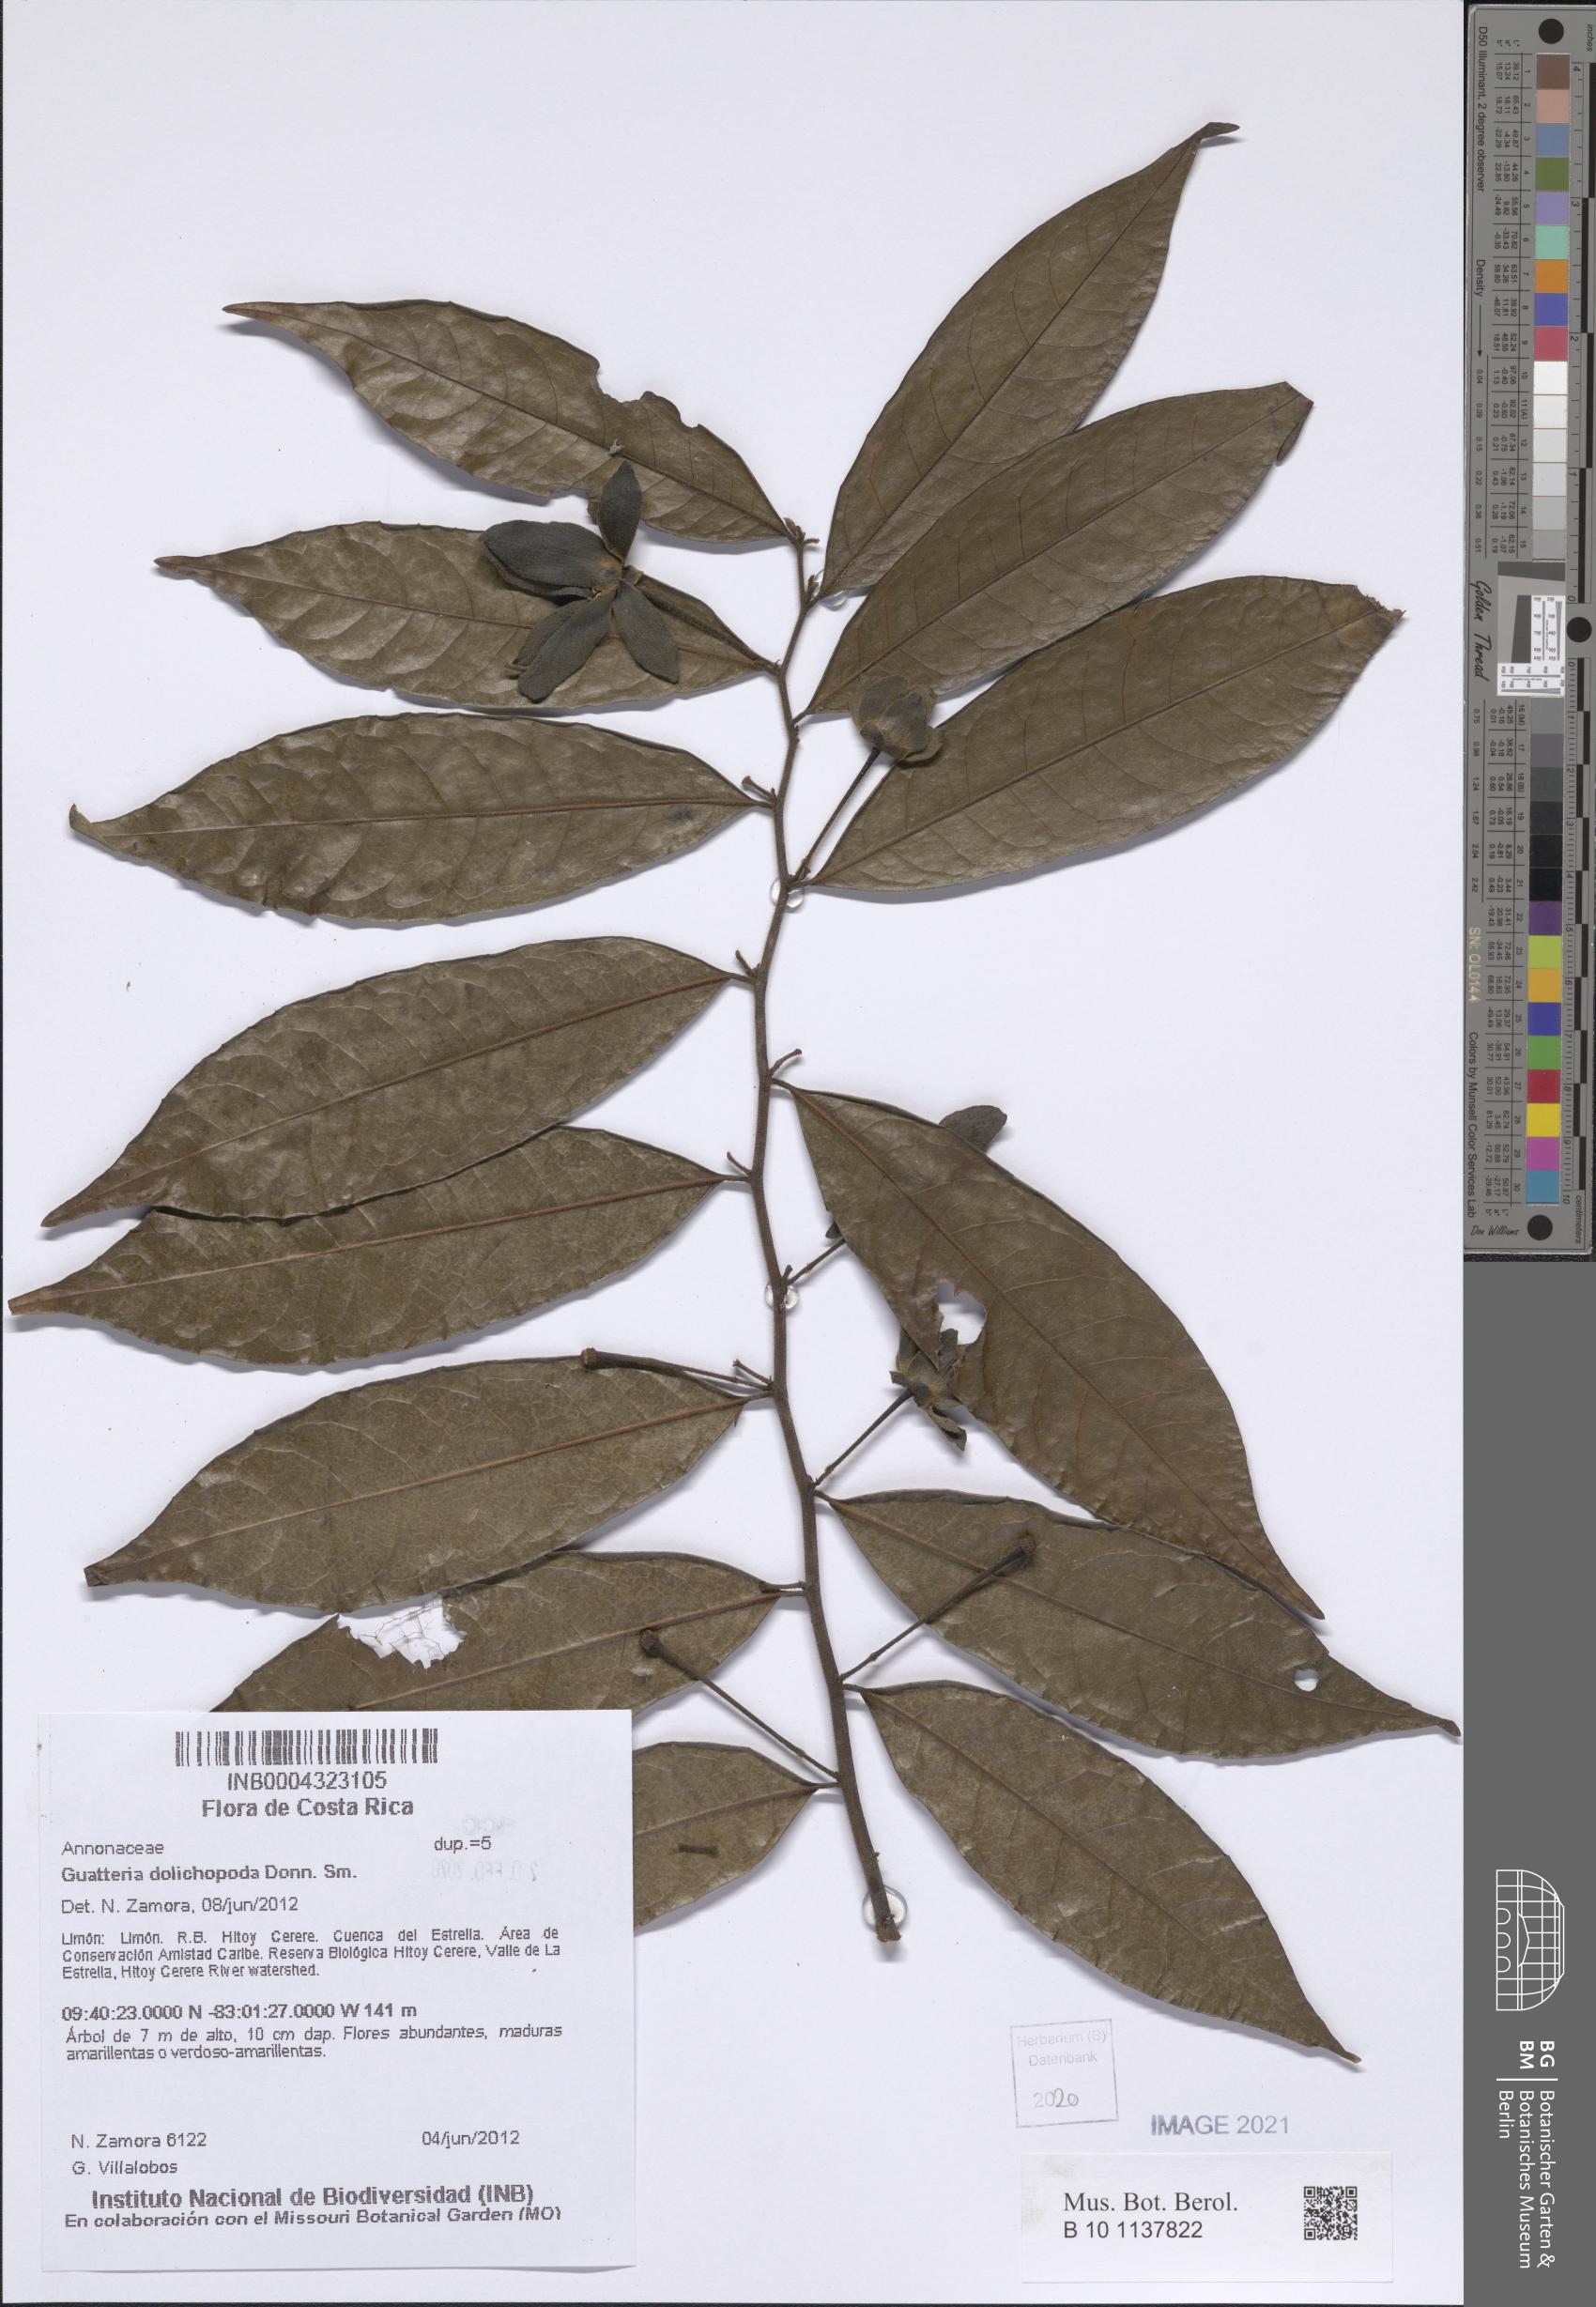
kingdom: Plantae
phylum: Tracheophyta
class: Magnoliopsida
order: Magnoliales
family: Annonaceae
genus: Guatteria
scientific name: Guatteria dolichopoda
